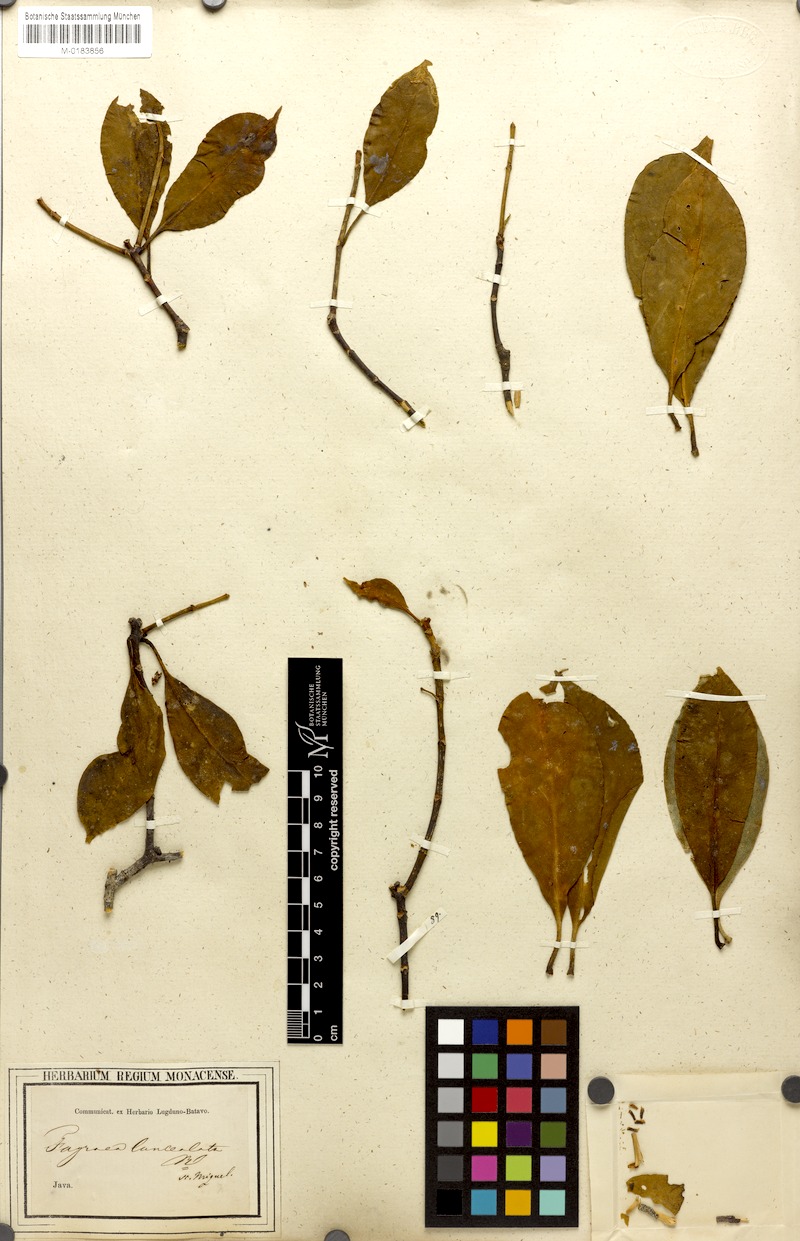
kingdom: Plantae
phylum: Tracheophyta
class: Magnoliopsida
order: Gentianales
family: Gentianaceae
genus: Fagraea
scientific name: Fagraea litoralis
